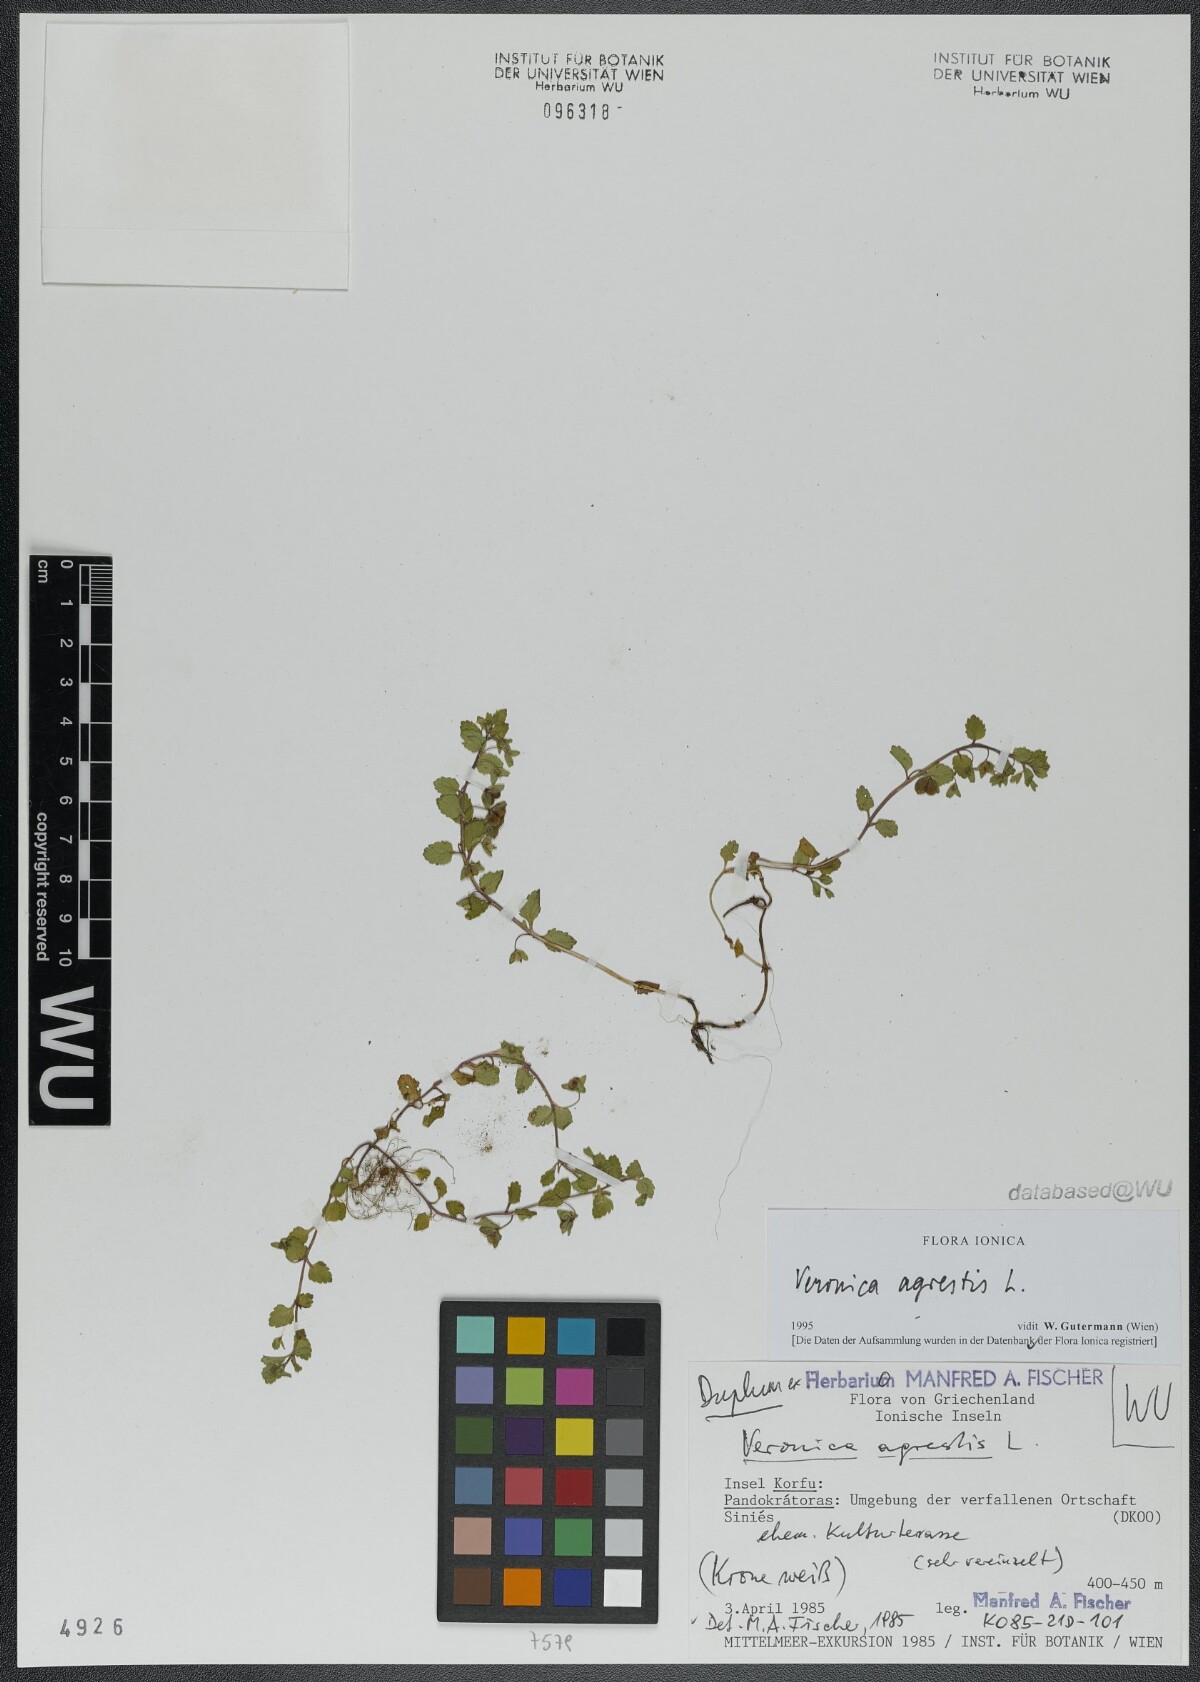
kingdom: Plantae
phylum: Tracheophyta
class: Magnoliopsida
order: Lamiales
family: Plantaginaceae
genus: Veronica
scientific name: Veronica agrestis
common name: Green field-speedwell
